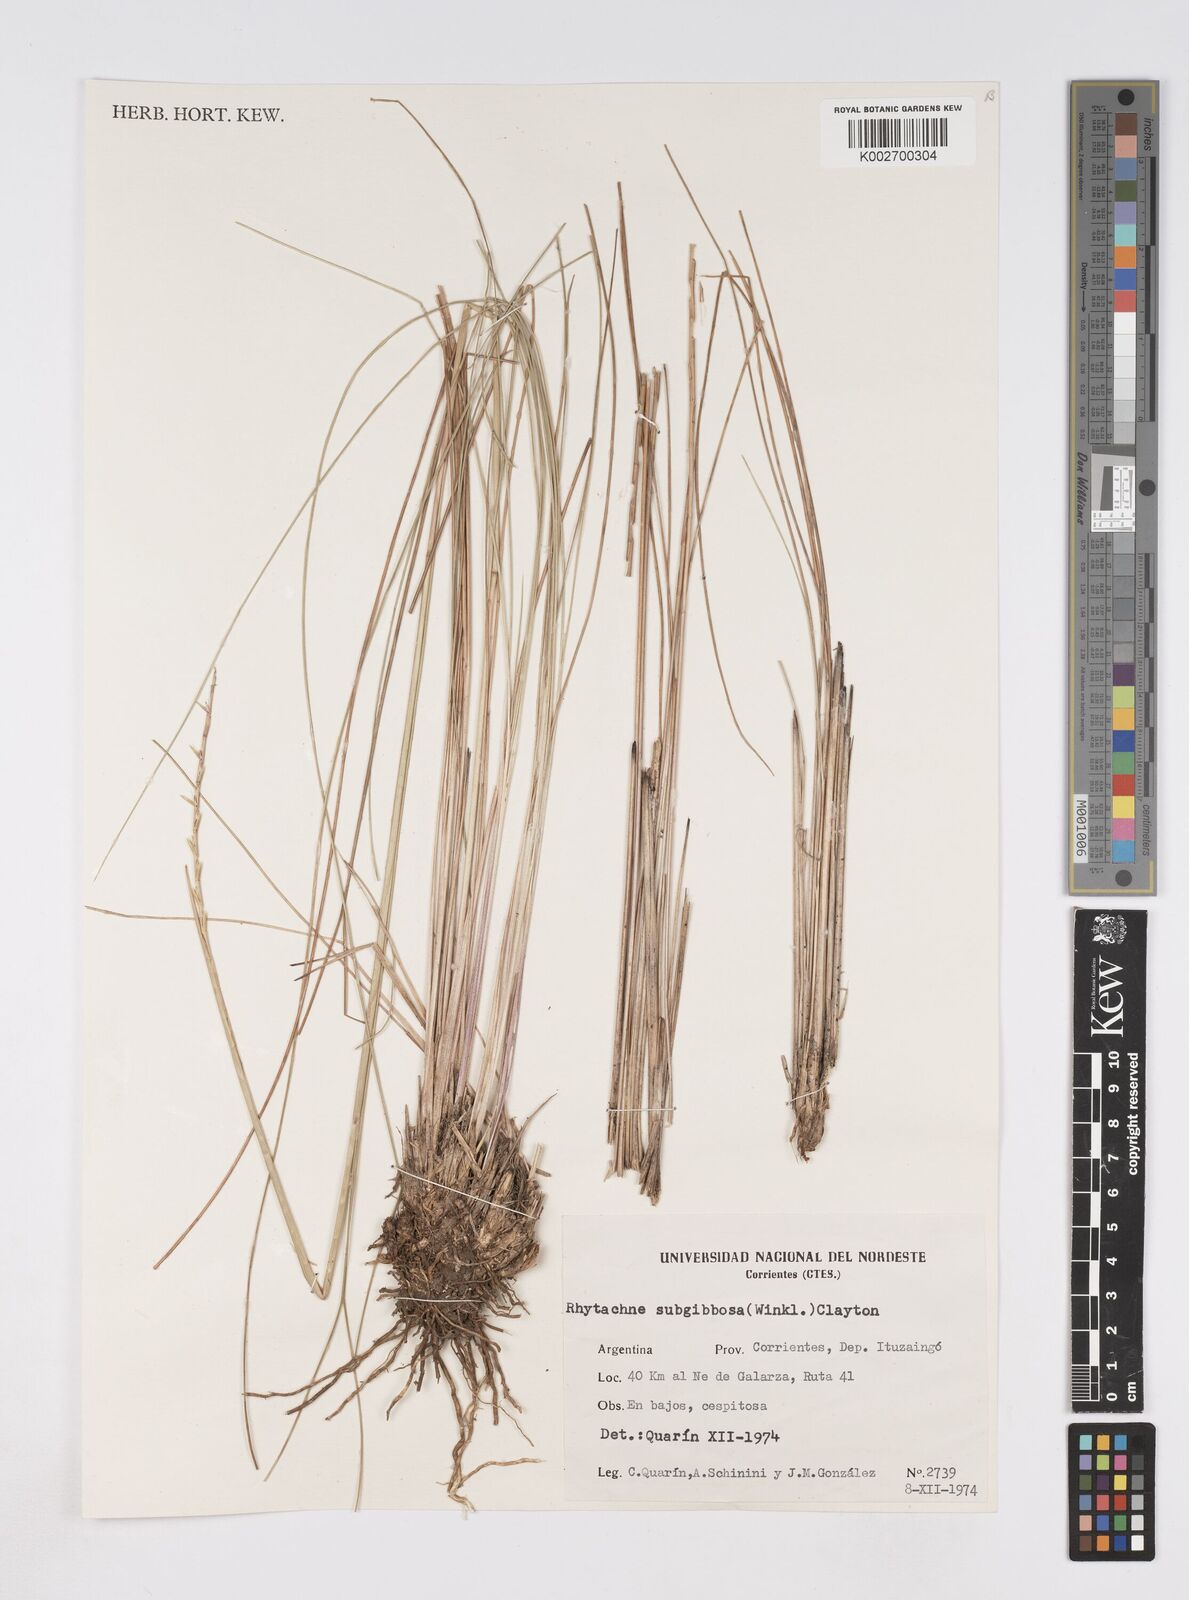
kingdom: Plantae
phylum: Tracheophyta
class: Liliopsida
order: Poales
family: Poaceae
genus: Rhytachne
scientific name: Rhytachne subgibbosa
